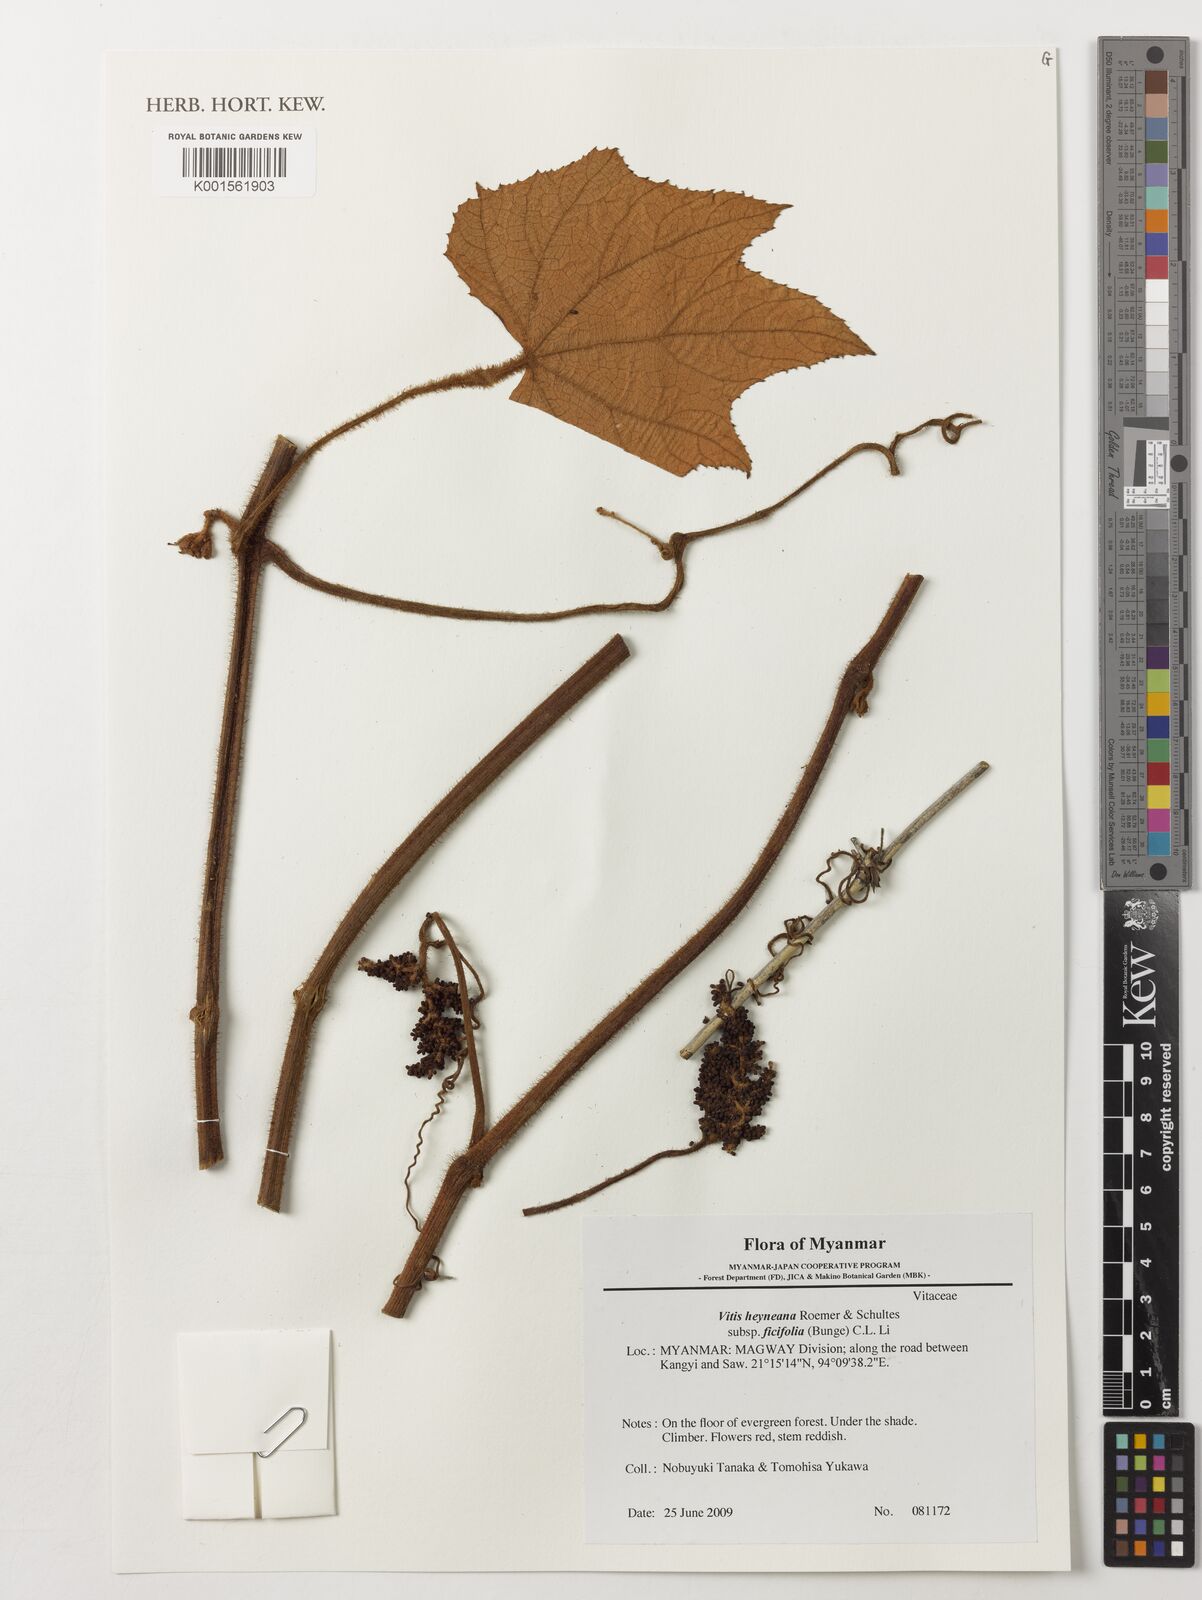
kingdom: Plantae
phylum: Tracheophyta
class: Magnoliopsida
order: Vitales
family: Vitaceae
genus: Vitis
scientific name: Vitis ficifolia
